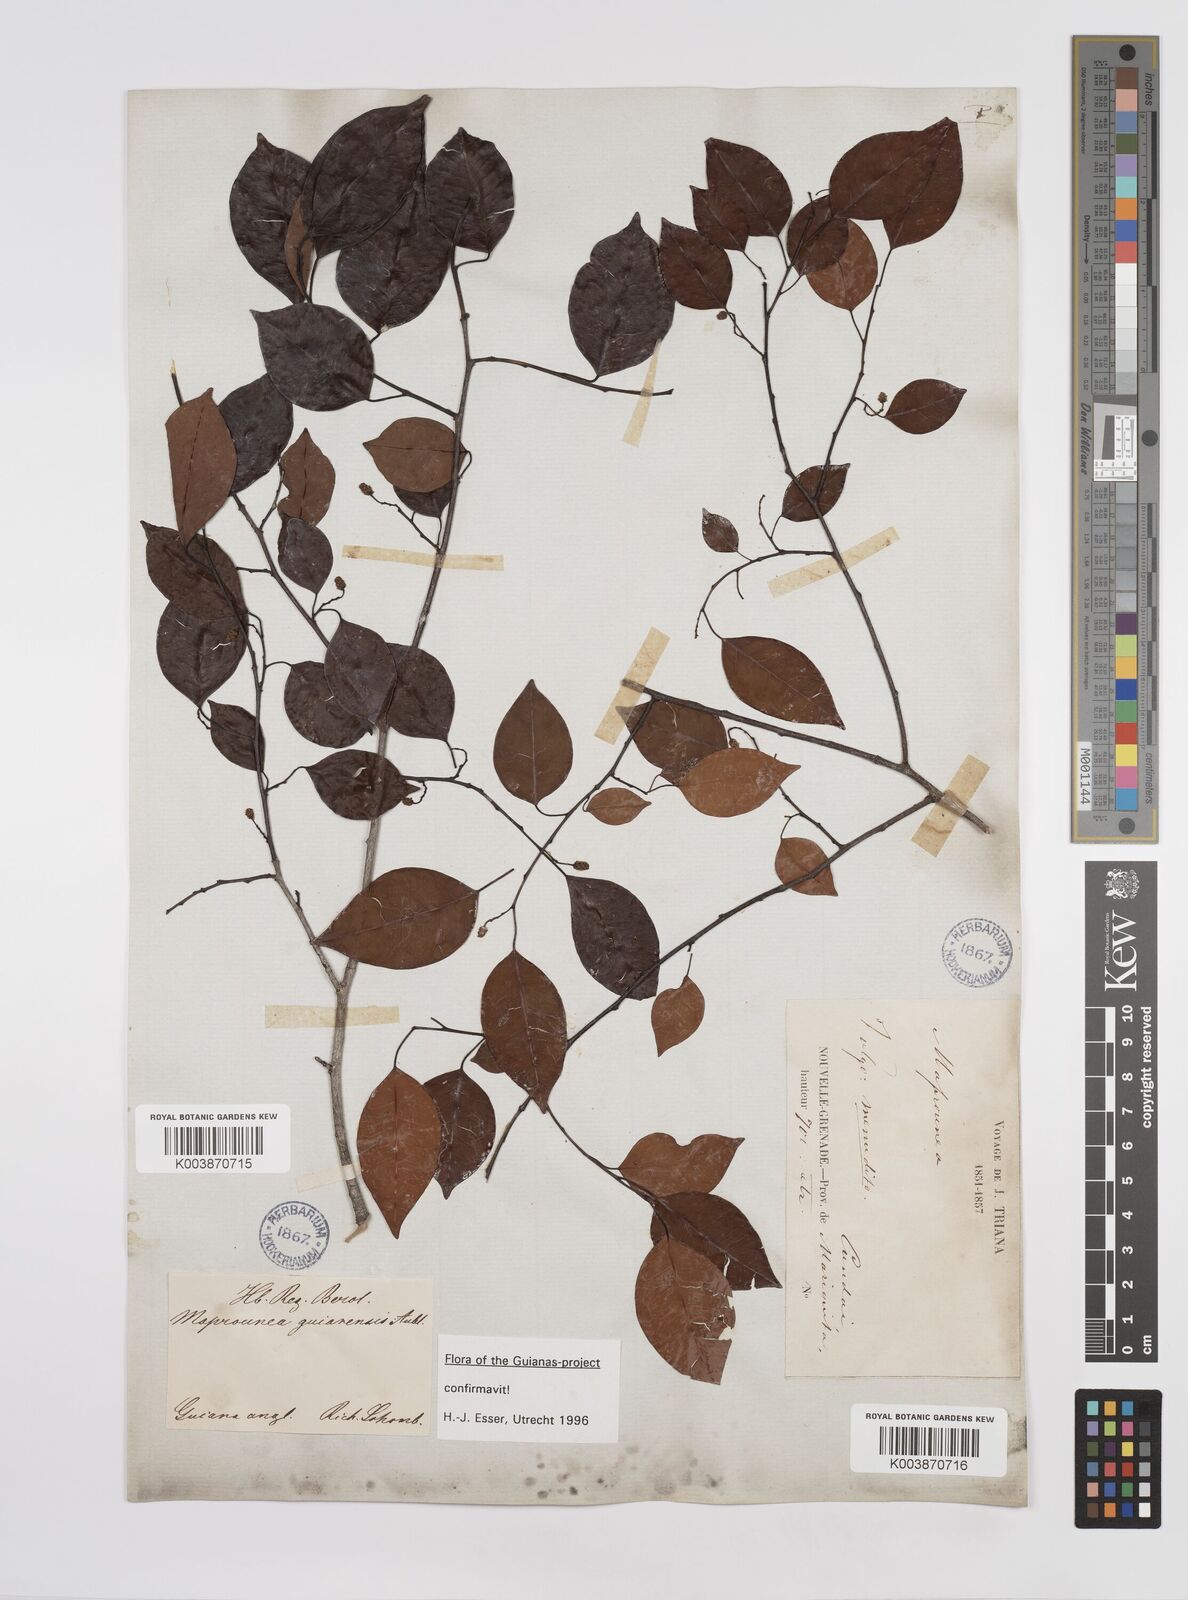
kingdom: Plantae
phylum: Tracheophyta
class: Magnoliopsida
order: Malpighiales
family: Euphorbiaceae
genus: Maprounea
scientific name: Maprounea guianensis
